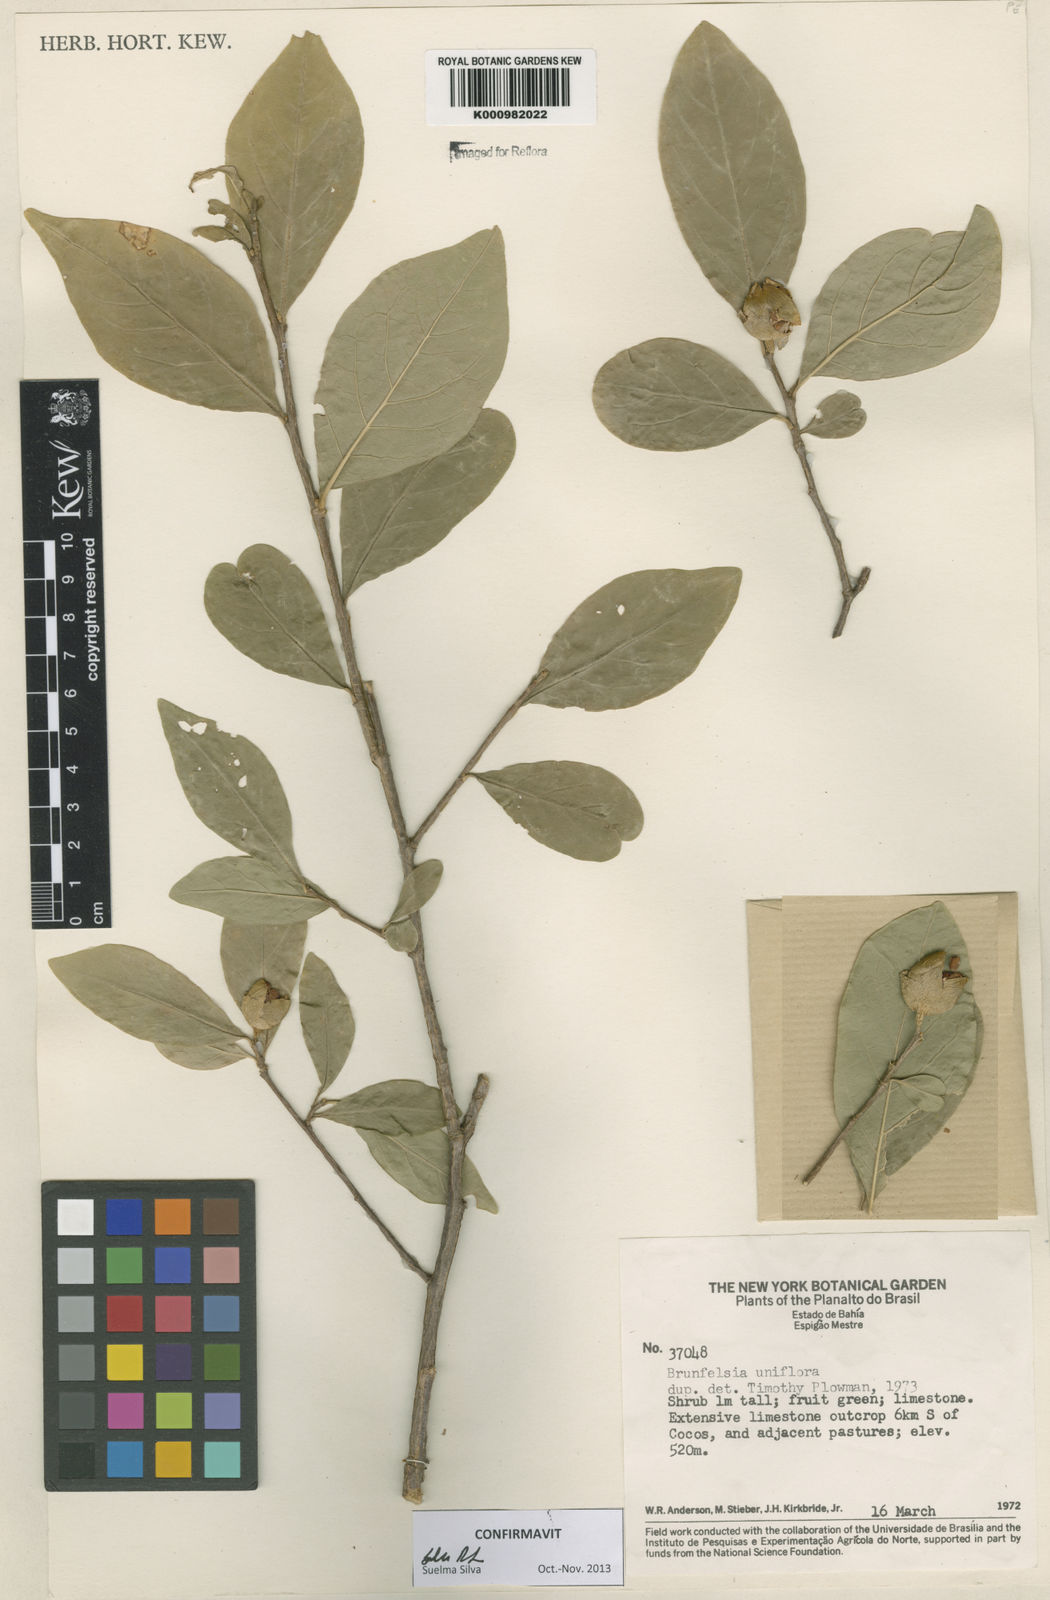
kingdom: Plantae
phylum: Tracheophyta
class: Magnoliopsida
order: Solanales
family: Solanaceae
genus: Brunfelsia
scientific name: Brunfelsia uniflora
